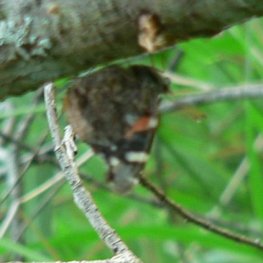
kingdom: Animalia
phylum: Arthropoda
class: Insecta
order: Lepidoptera
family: Nymphalidae
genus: Vanessa
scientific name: Vanessa atalanta
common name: Red Admiral
